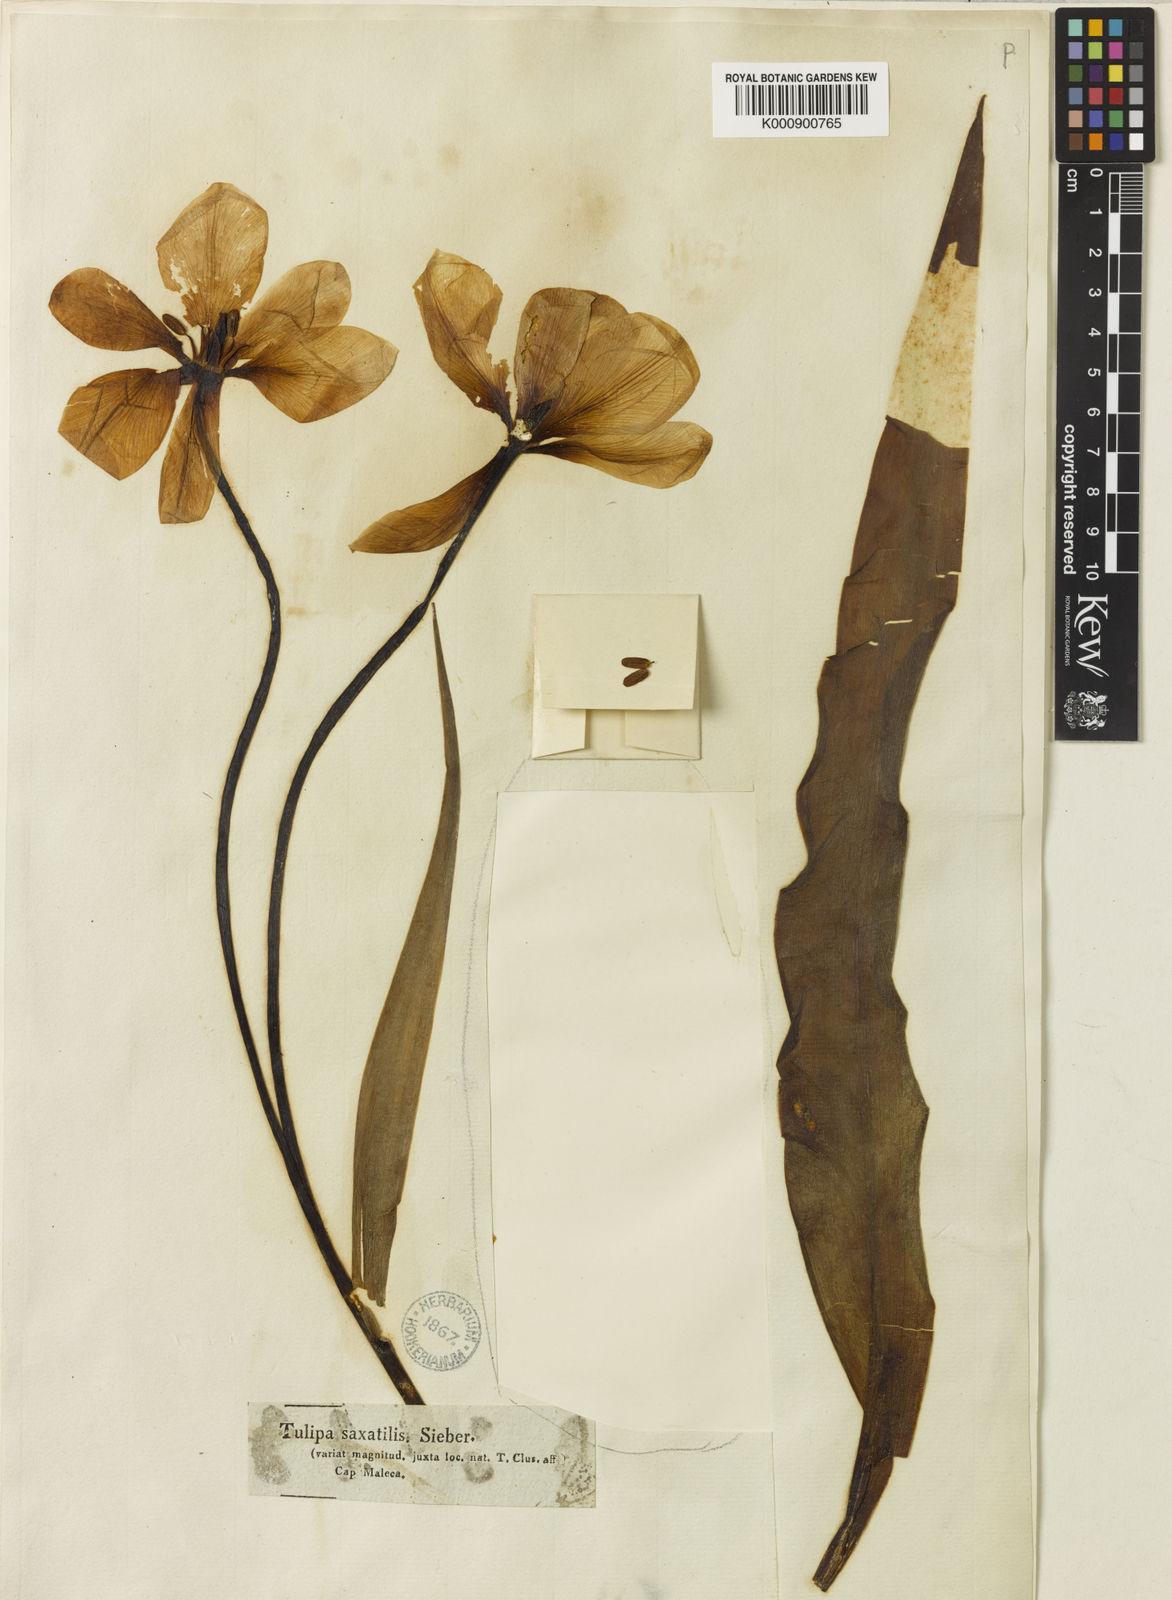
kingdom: Plantae
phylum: Tracheophyta
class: Liliopsida
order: Liliales
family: Liliaceae
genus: Tulipa
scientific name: Tulipa saxatilis
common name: Cretan tulip
